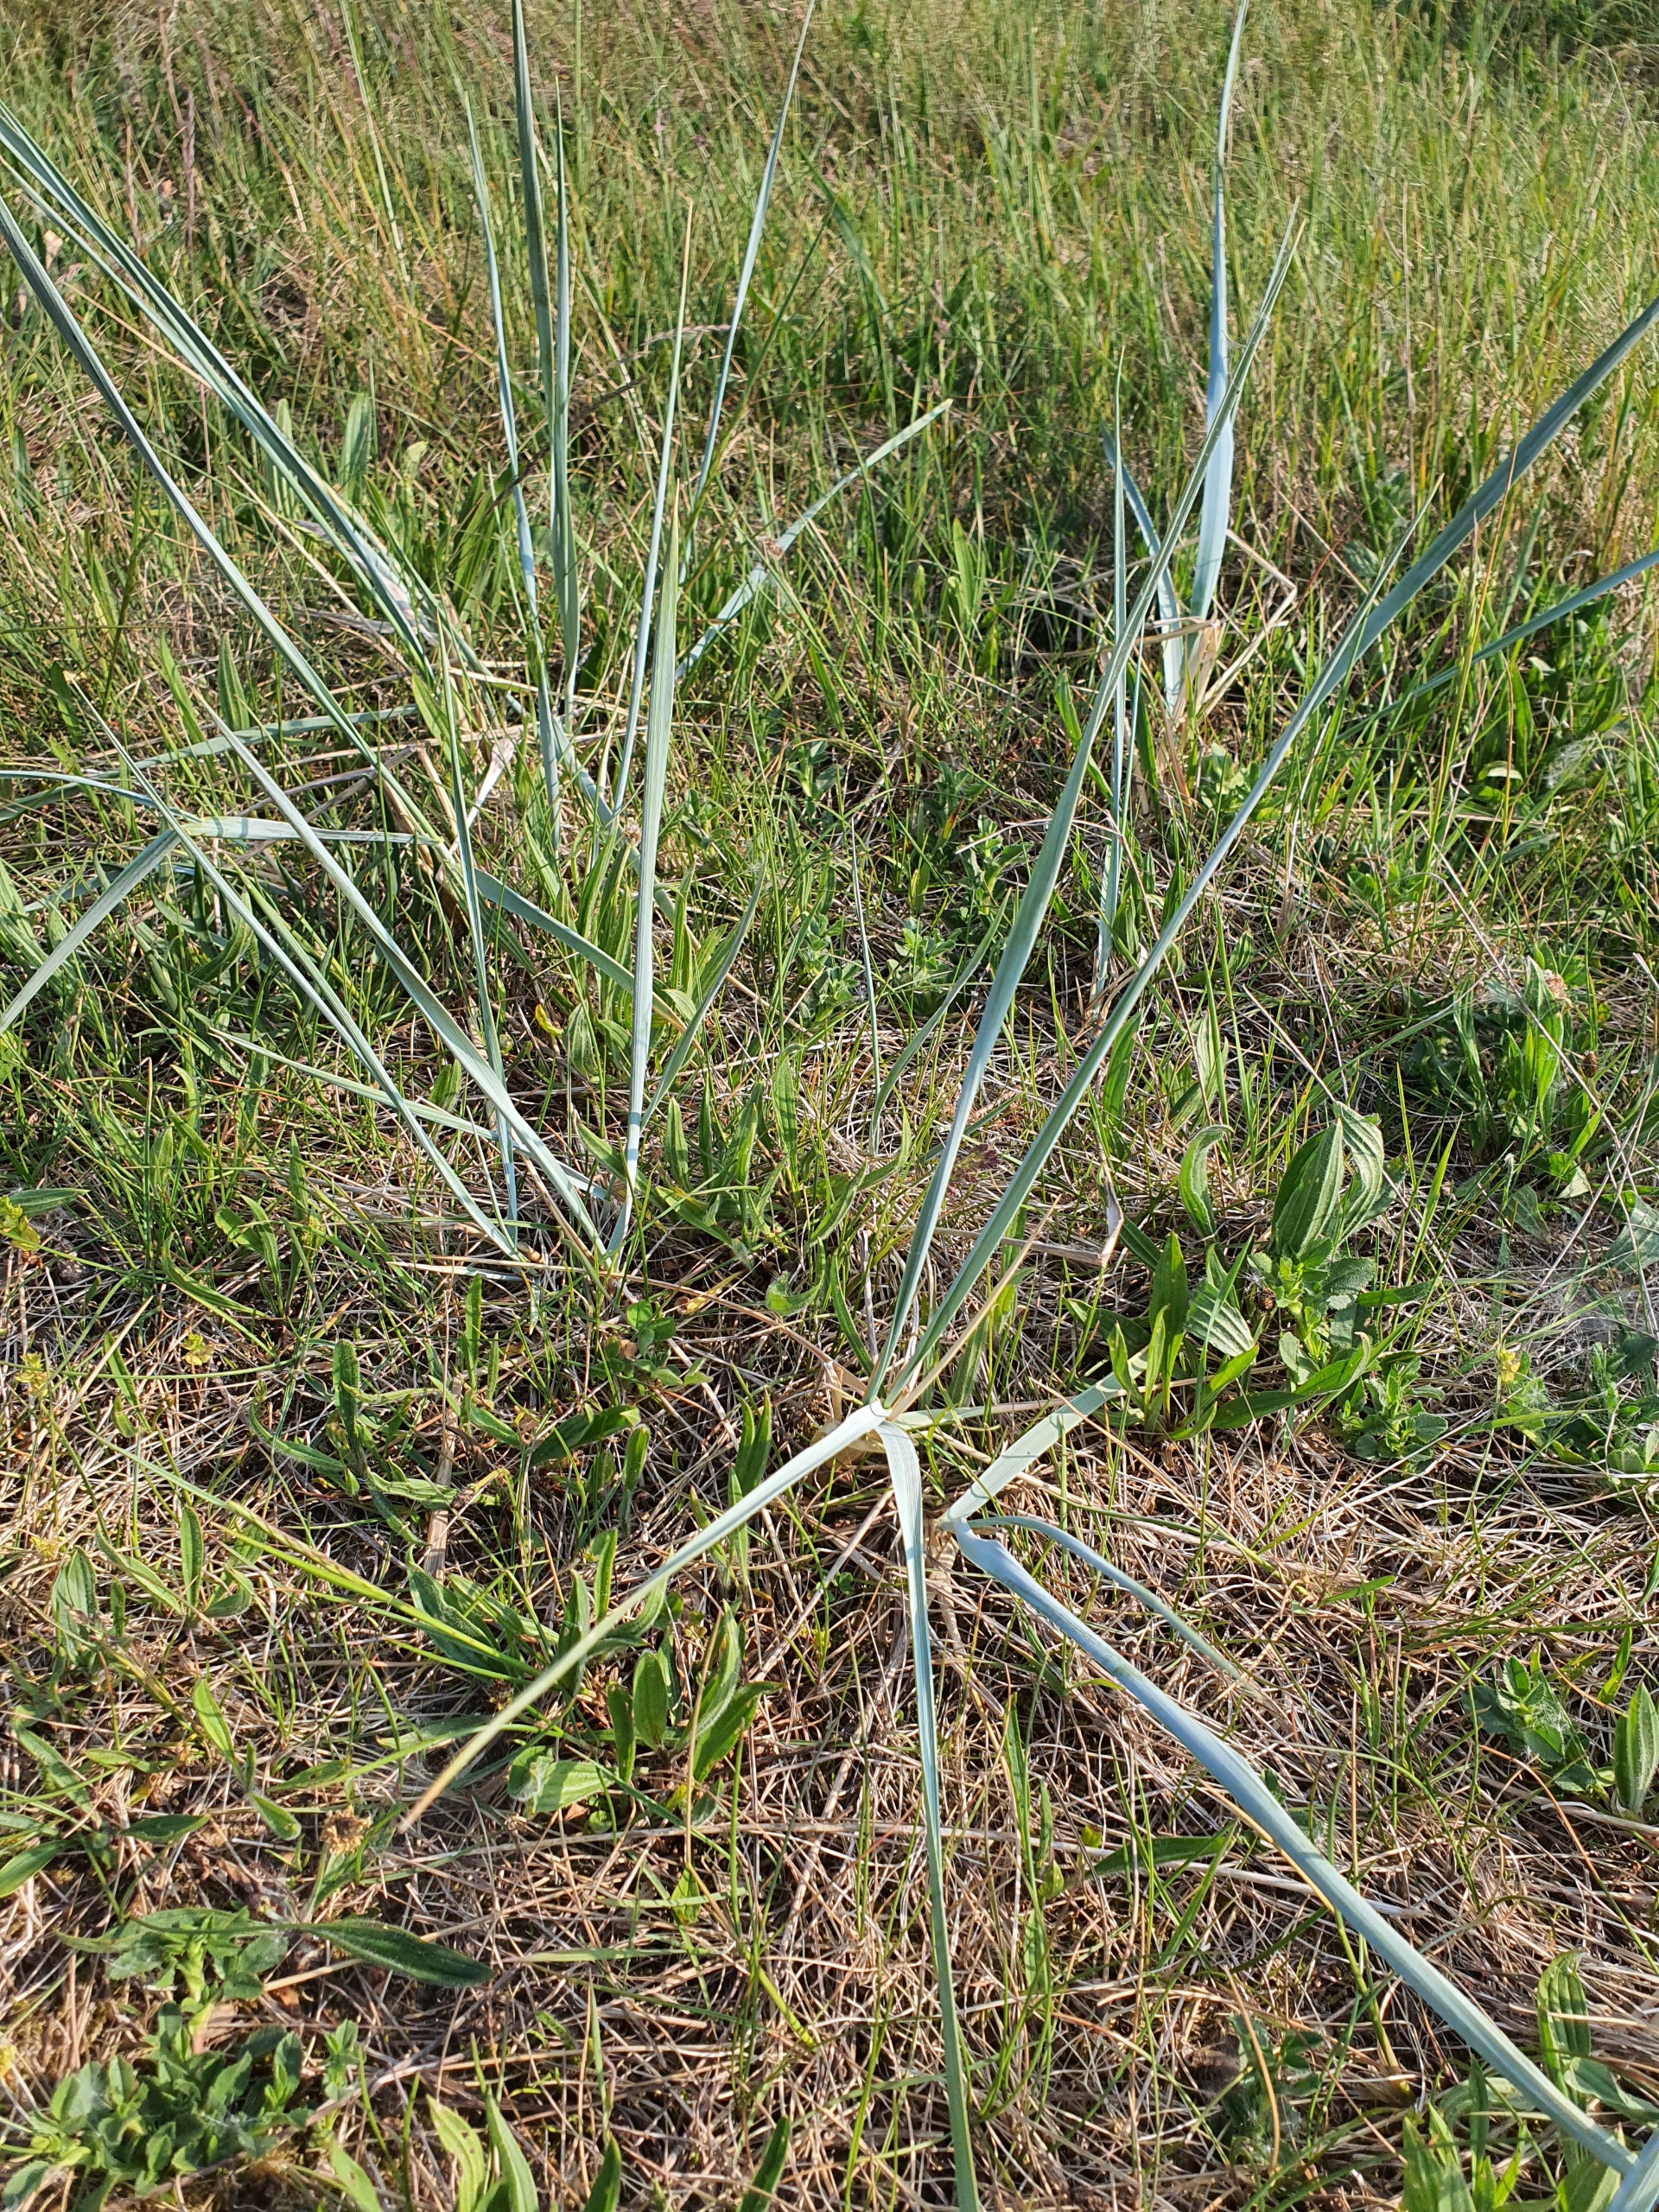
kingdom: Plantae
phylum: Tracheophyta
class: Liliopsida
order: Poales
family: Poaceae
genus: Leymus
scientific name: Leymus arenarius
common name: Marehalm
